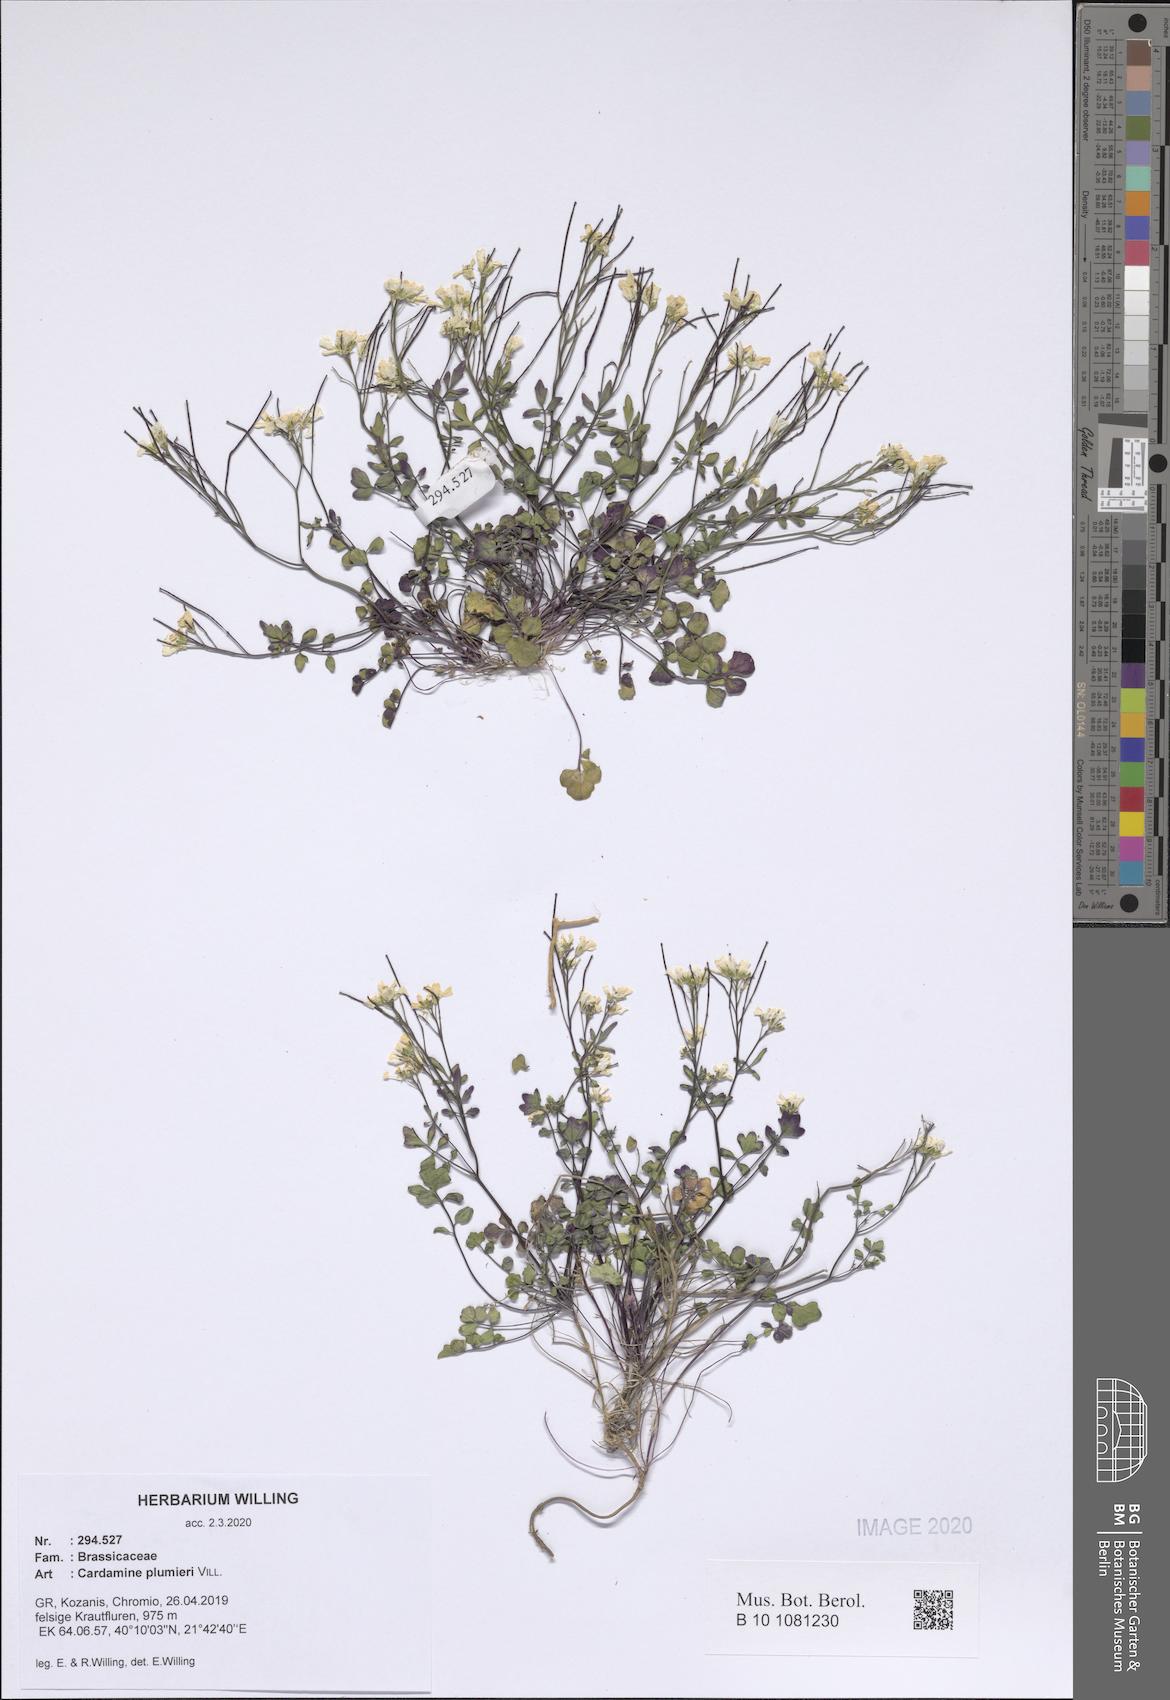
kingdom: Plantae
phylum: Tracheophyta
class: Magnoliopsida
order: Brassicales
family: Brassicaceae
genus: Cardamine
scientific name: Cardamine plumierii
